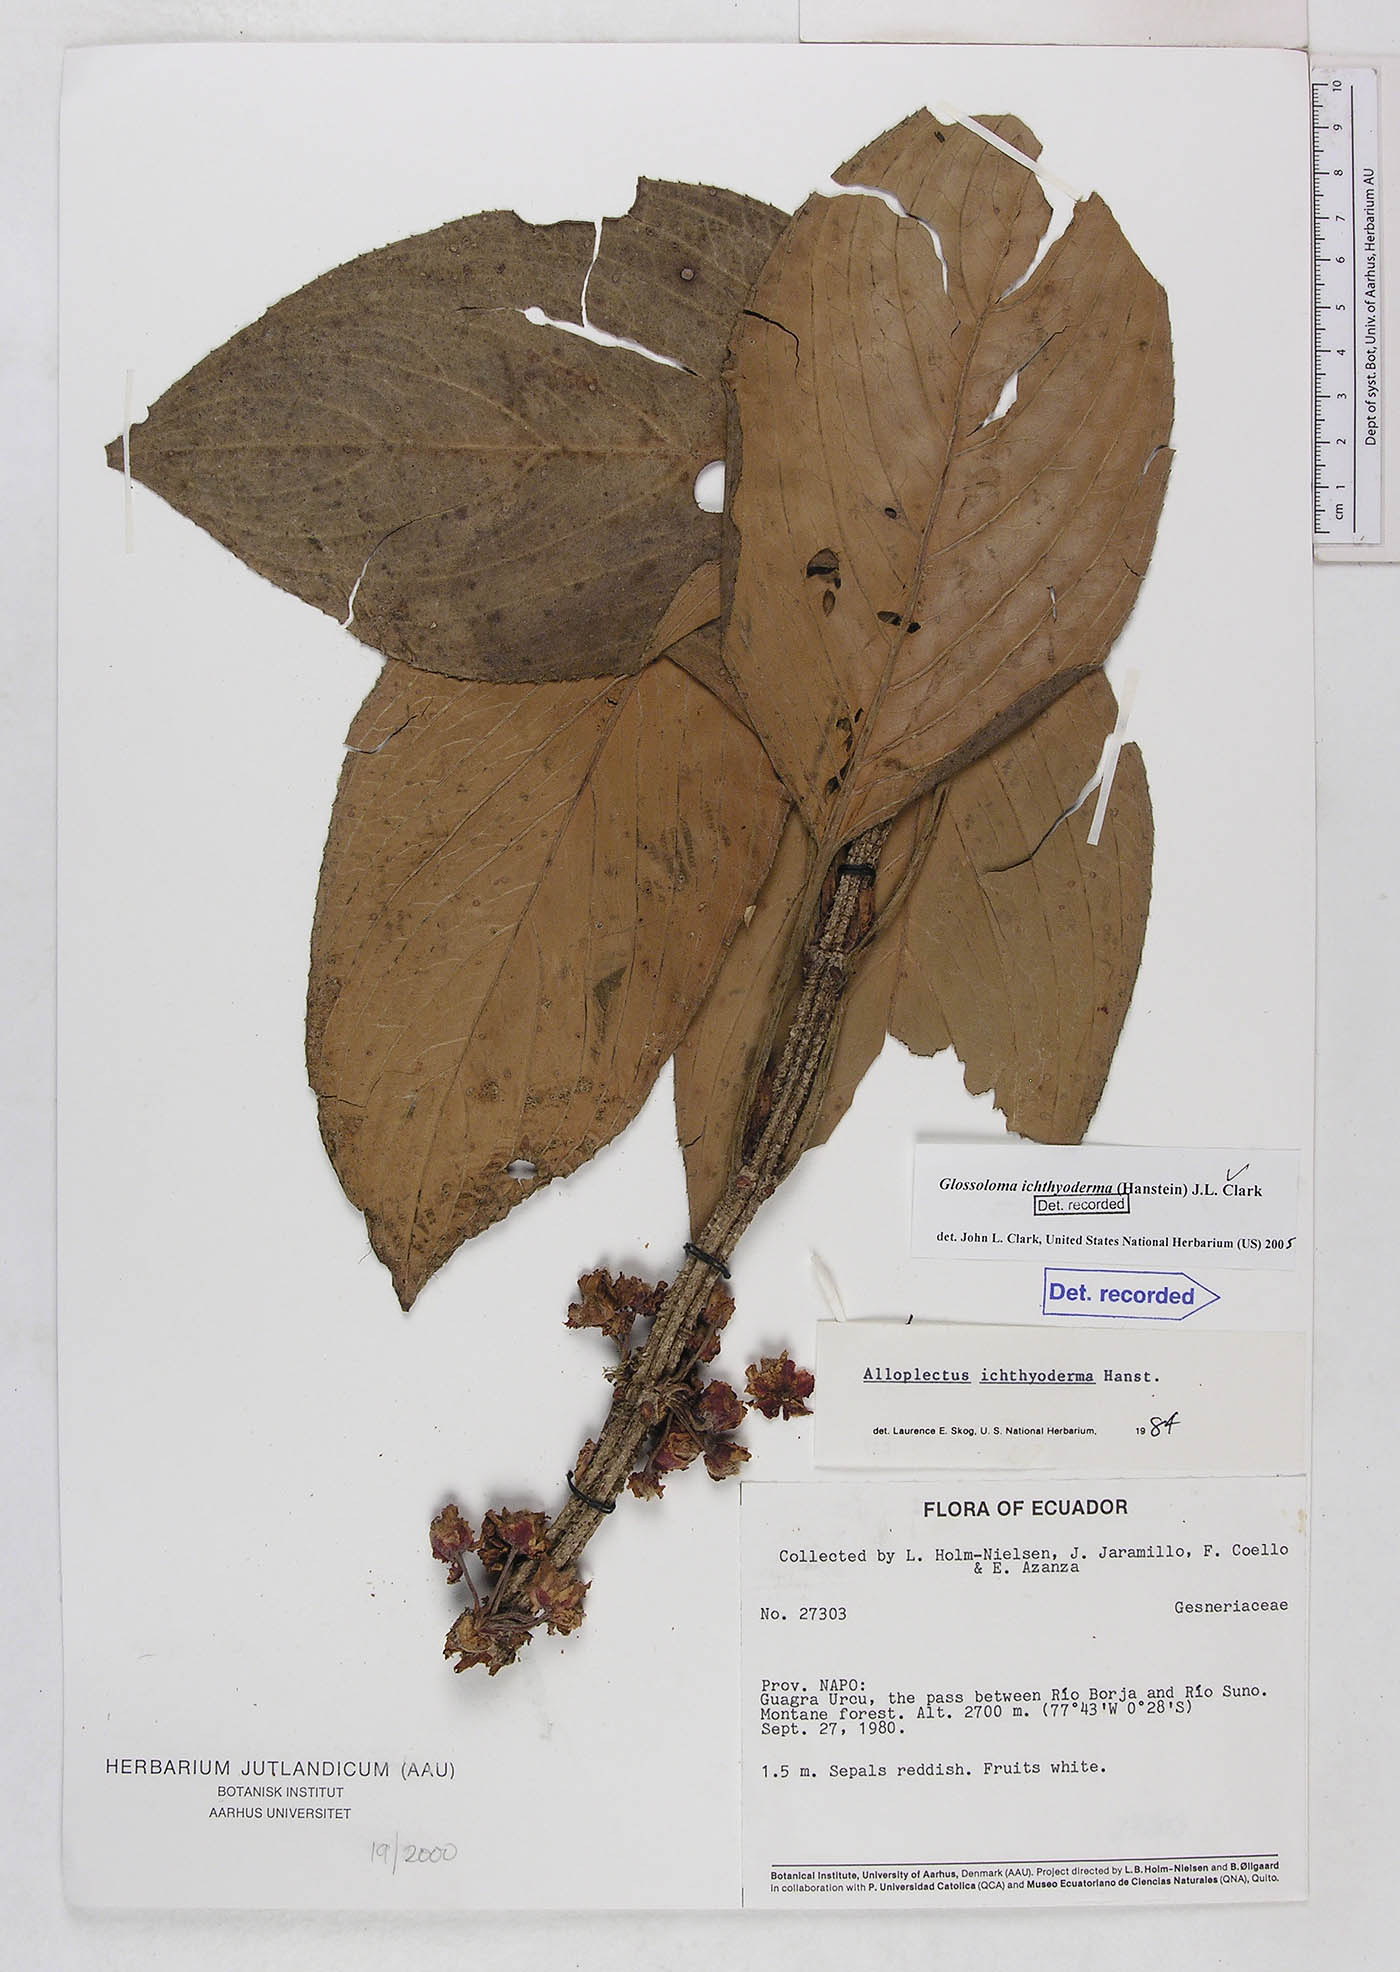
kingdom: Plantae
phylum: Tracheophyta
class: Magnoliopsida
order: Lamiales
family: Gesneriaceae
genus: Glossoloma
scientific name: Glossoloma ichthyoderma
